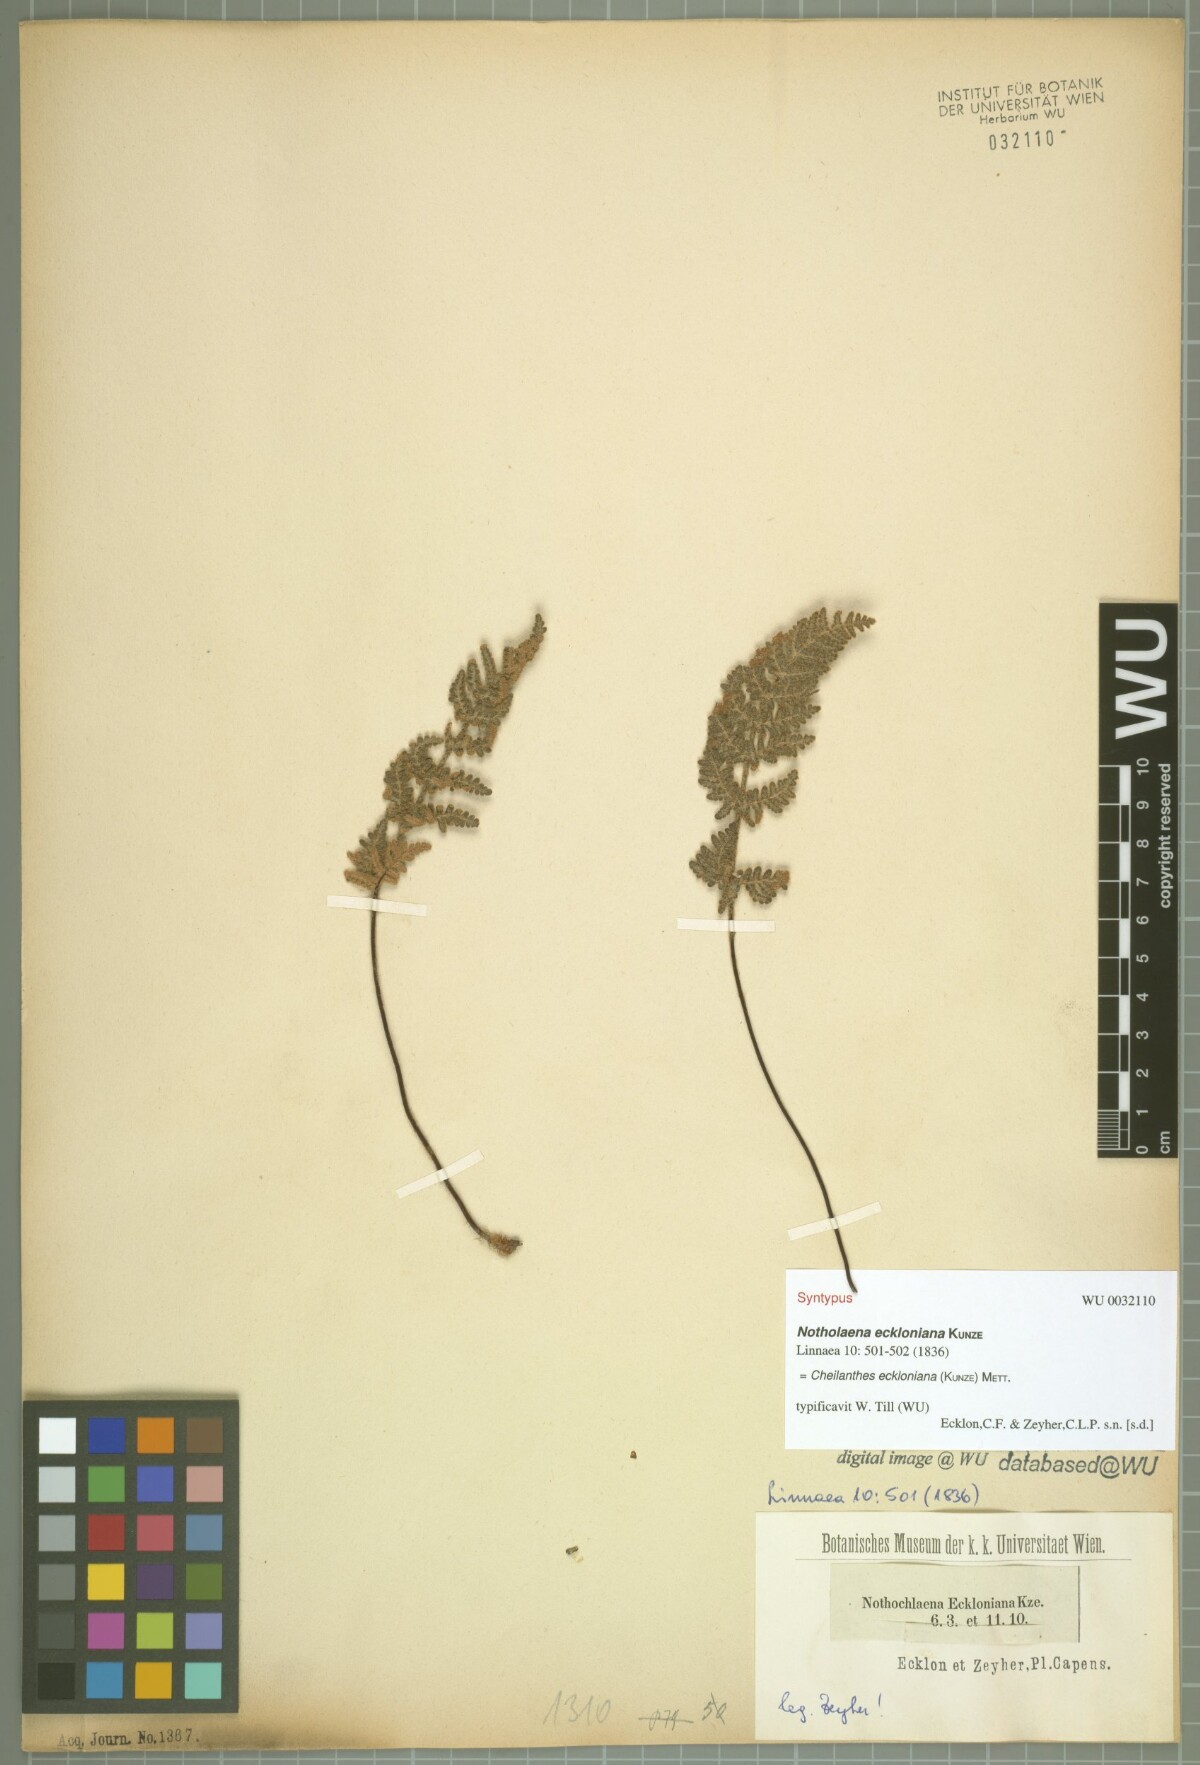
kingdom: Plantae
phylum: Tracheophyta
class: Polypodiopsida
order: Polypodiales
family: Pteridaceae
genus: Cheilanthes
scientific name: Cheilanthes eckloniana
